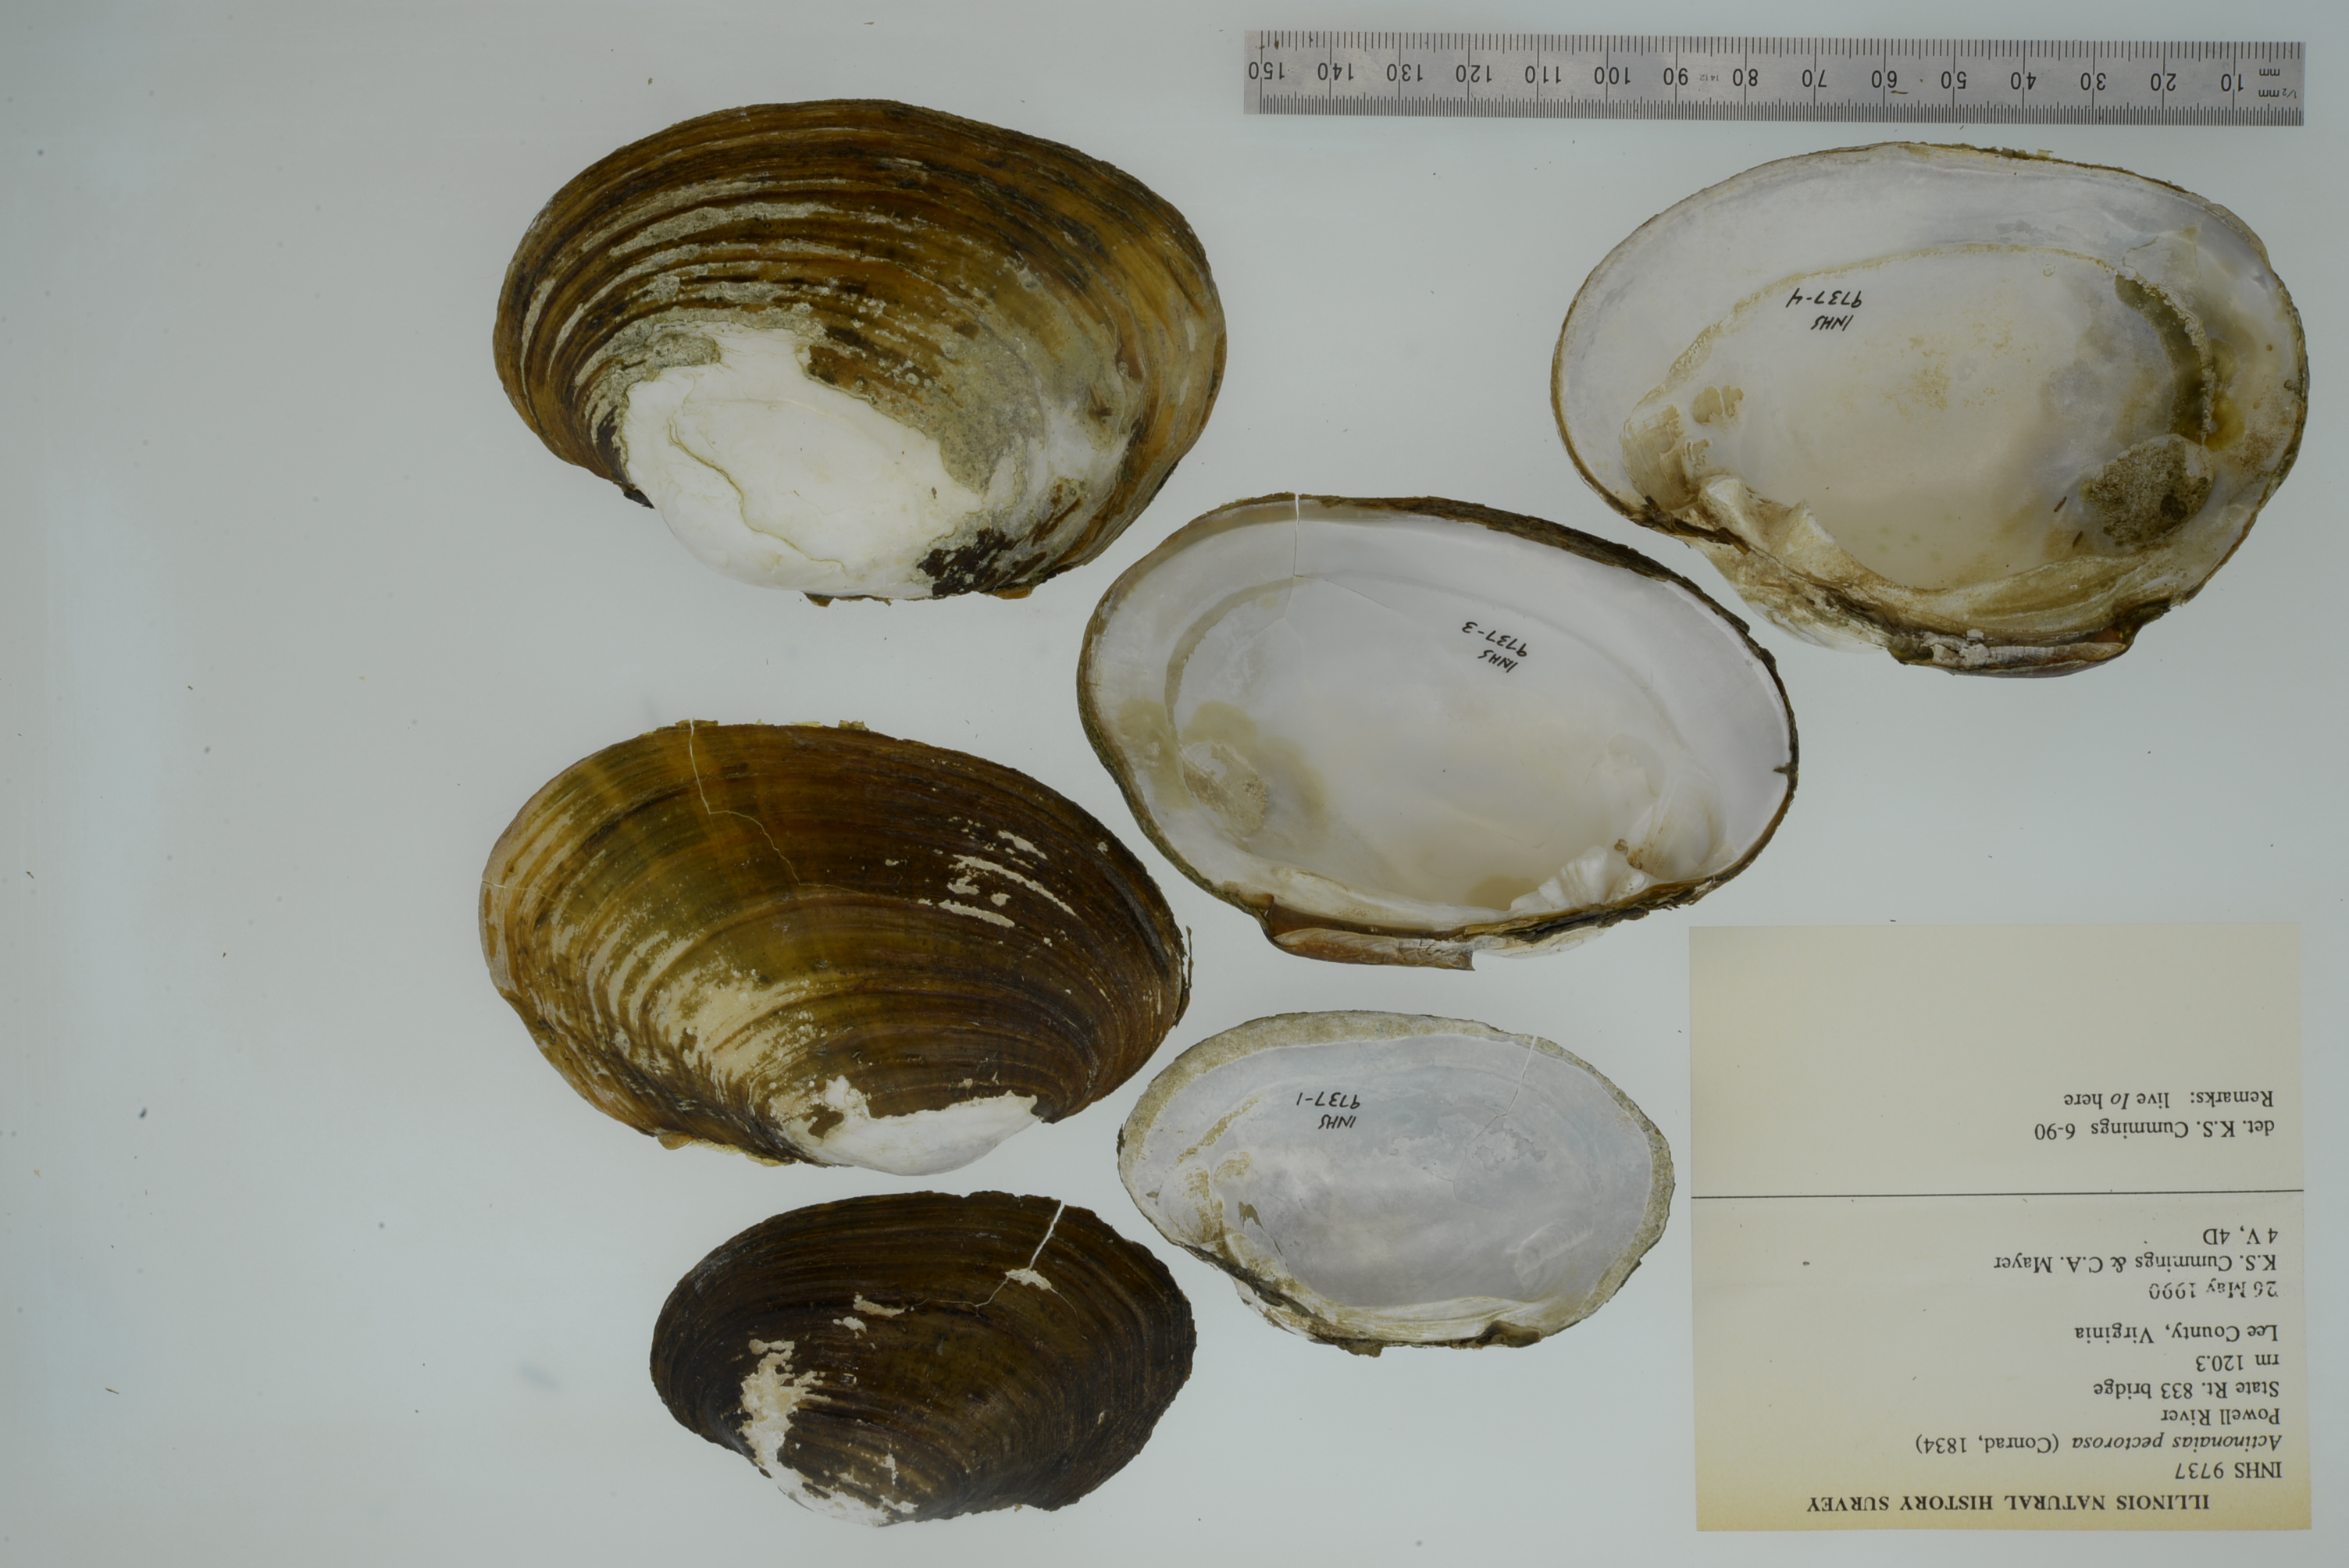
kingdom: Animalia
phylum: Mollusca
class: Bivalvia
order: Unionida
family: Unionidae
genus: Ortmanniana
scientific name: Ortmanniana pectorosa
